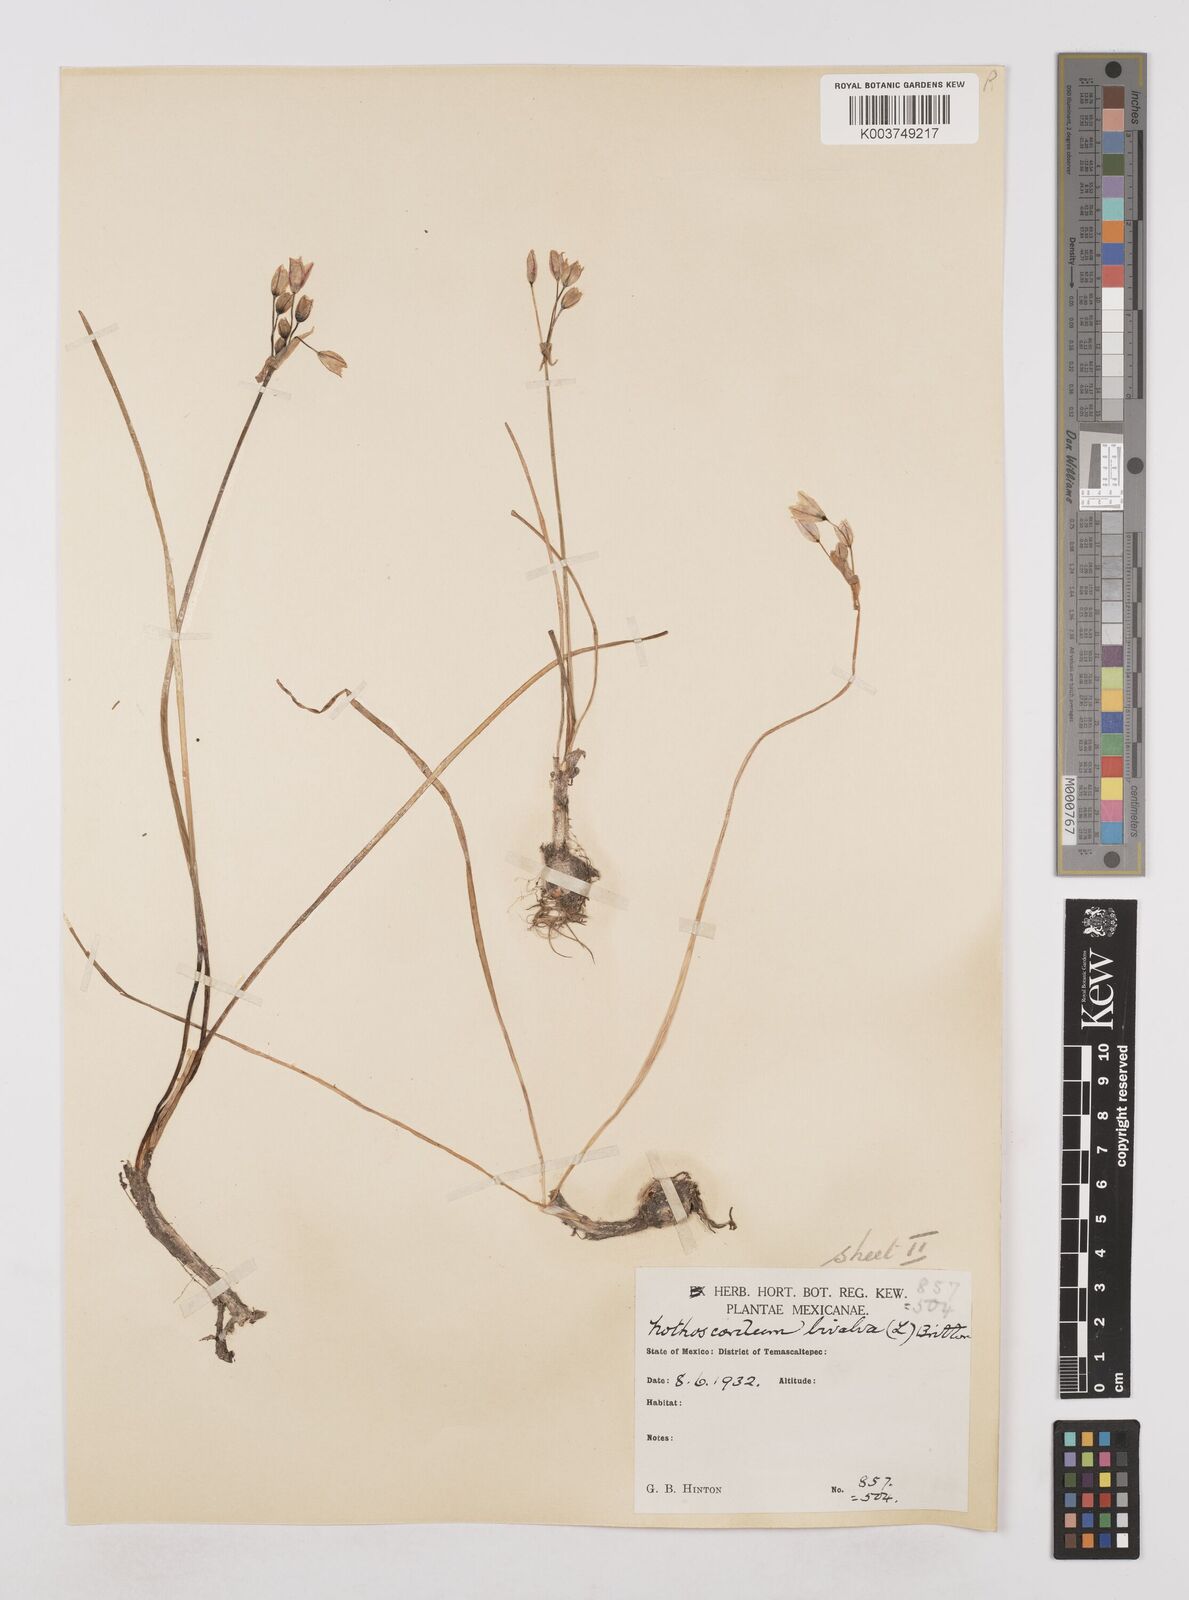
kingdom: Plantae
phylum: Tracheophyta
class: Liliopsida
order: Asparagales
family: Amaryllidaceae
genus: Nothoscordum
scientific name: Nothoscordum bivalve
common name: Crow-poison
